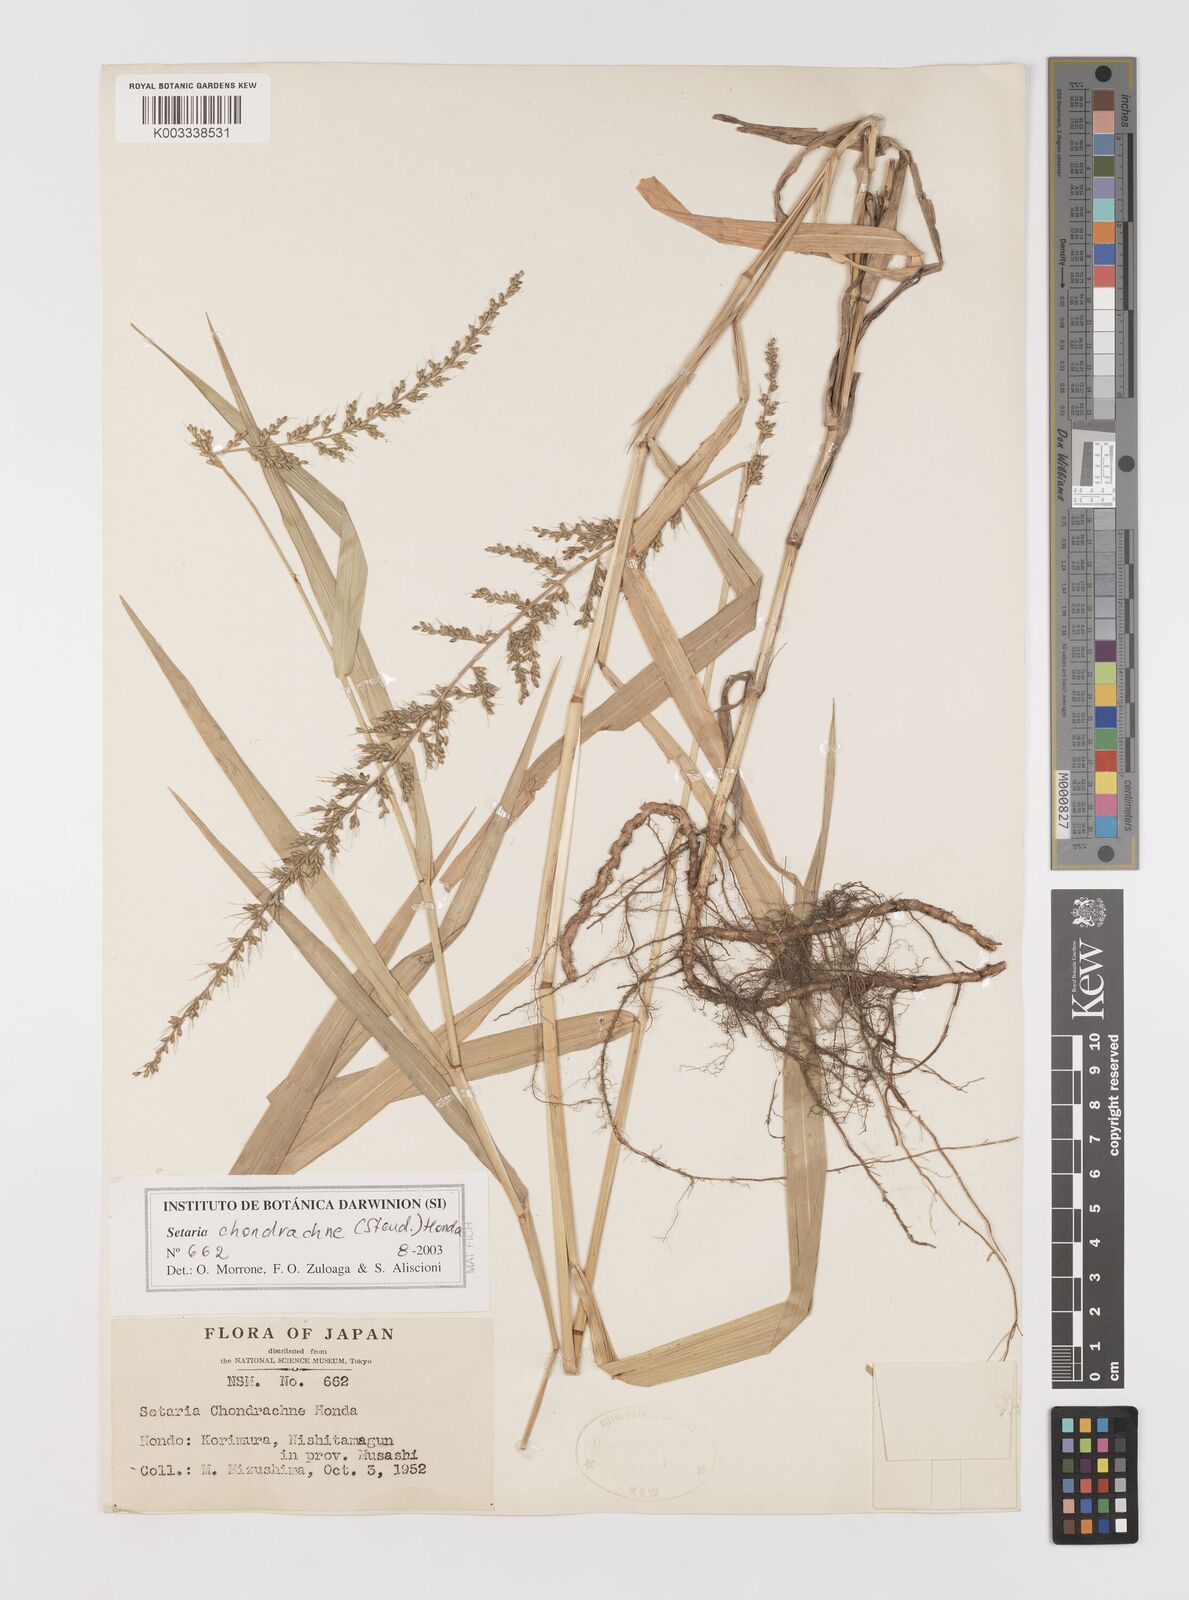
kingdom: Plantae
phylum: Tracheophyta
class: Liliopsida
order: Poales
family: Poaceae
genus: Setaria
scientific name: Setaria chondrachne
